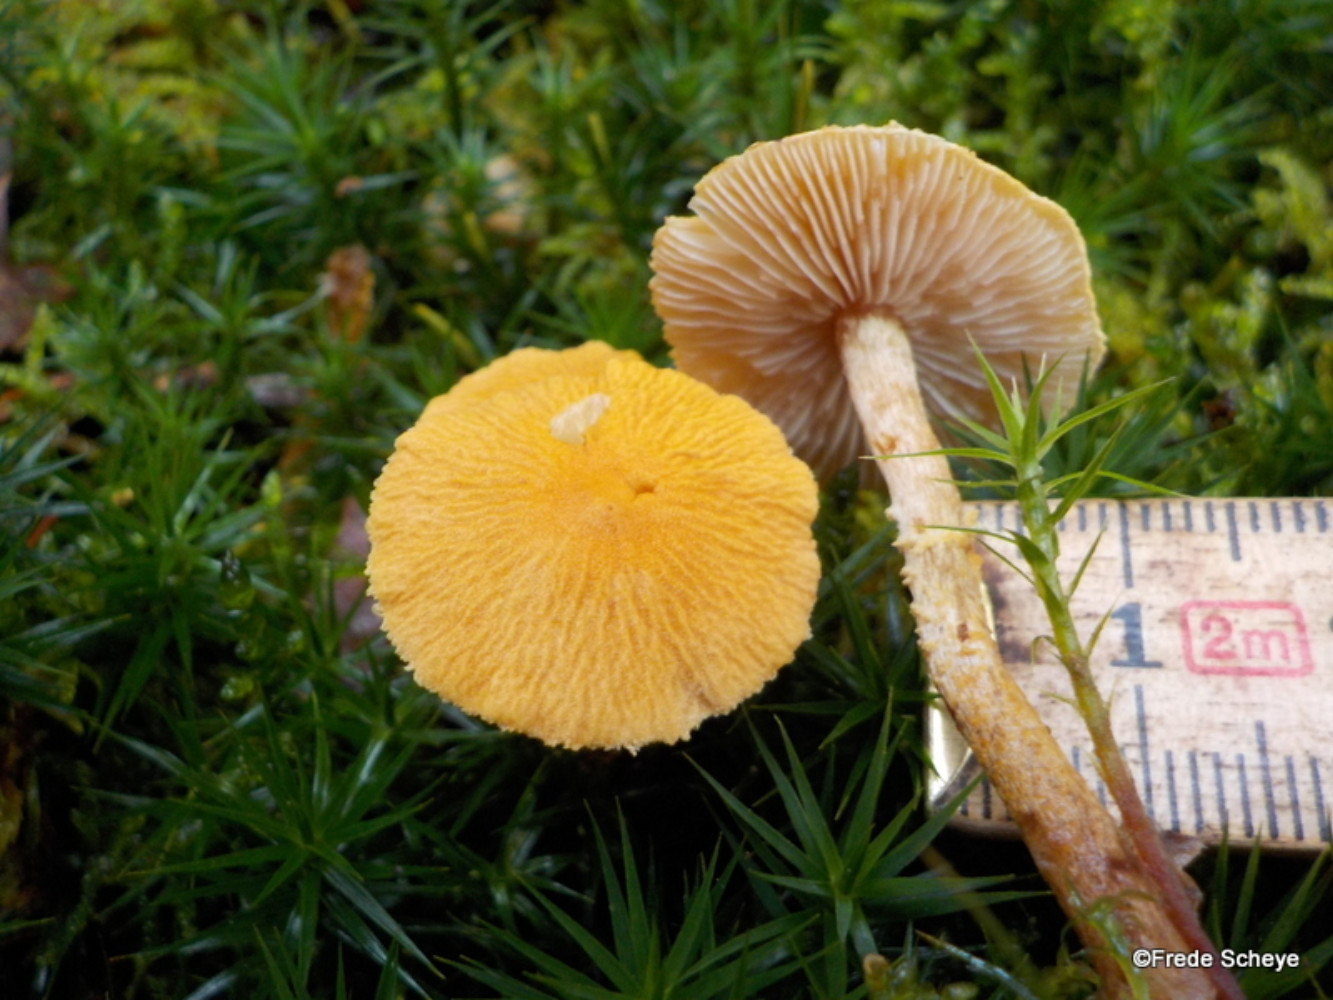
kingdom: Fungi
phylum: Basidiomycota
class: Agaricomycetes
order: Agaricales
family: Tricholomataceae
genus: Cystoderma
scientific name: Cystoderma amianthinum
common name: okkergul grynhat
